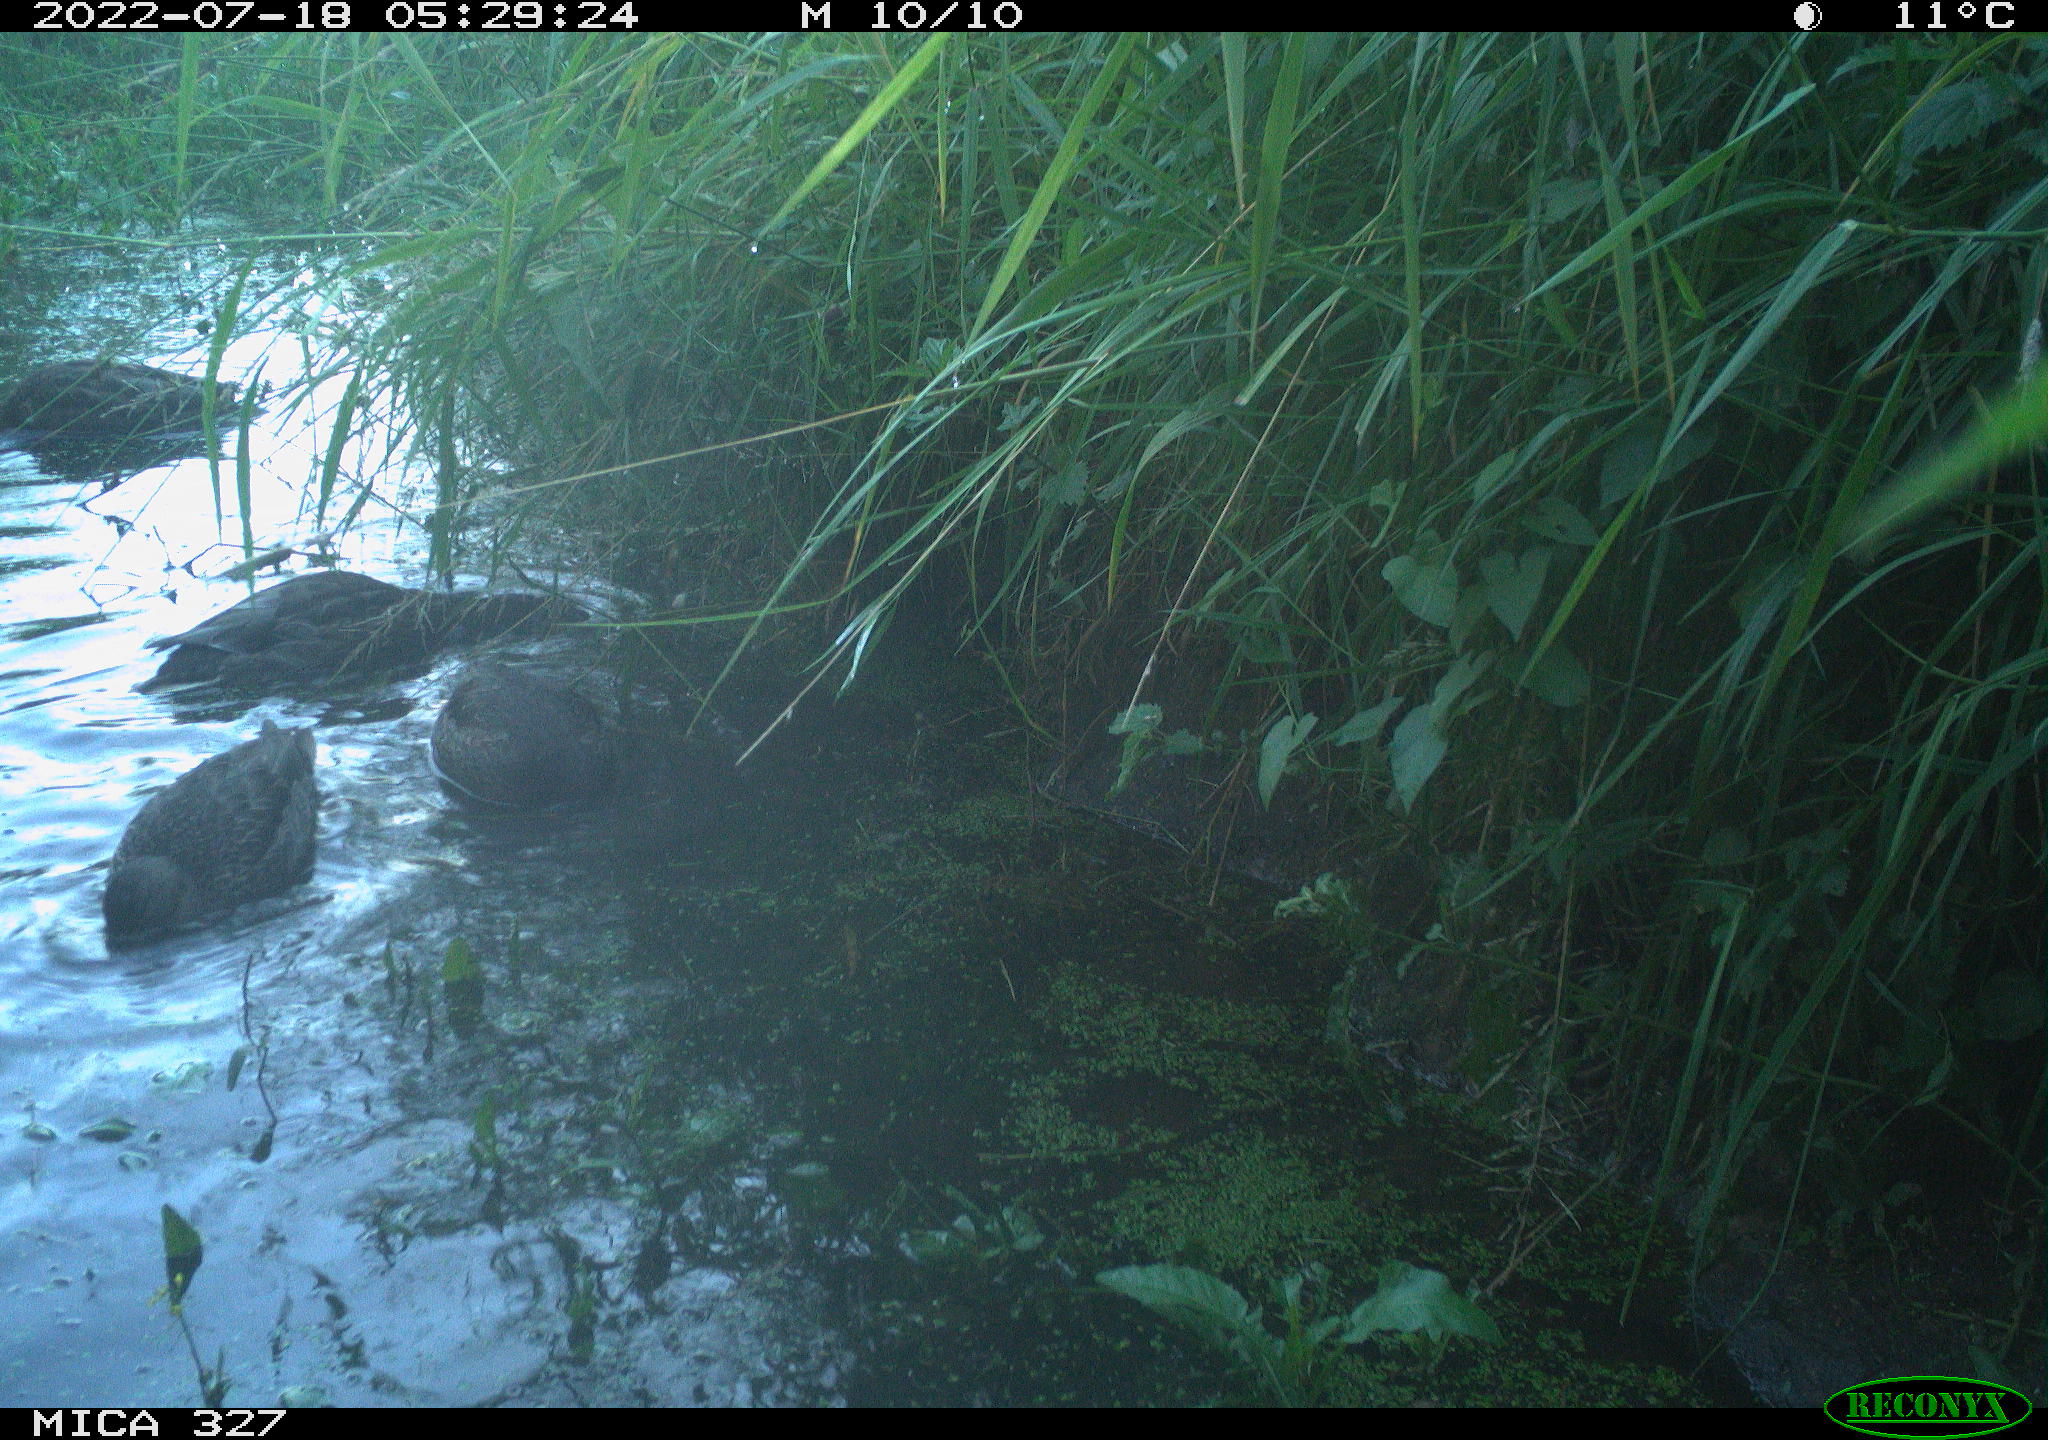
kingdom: Animalia
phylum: Chordata
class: Aves
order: Anseriformes
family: Anatidae
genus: Anas
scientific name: Anas
